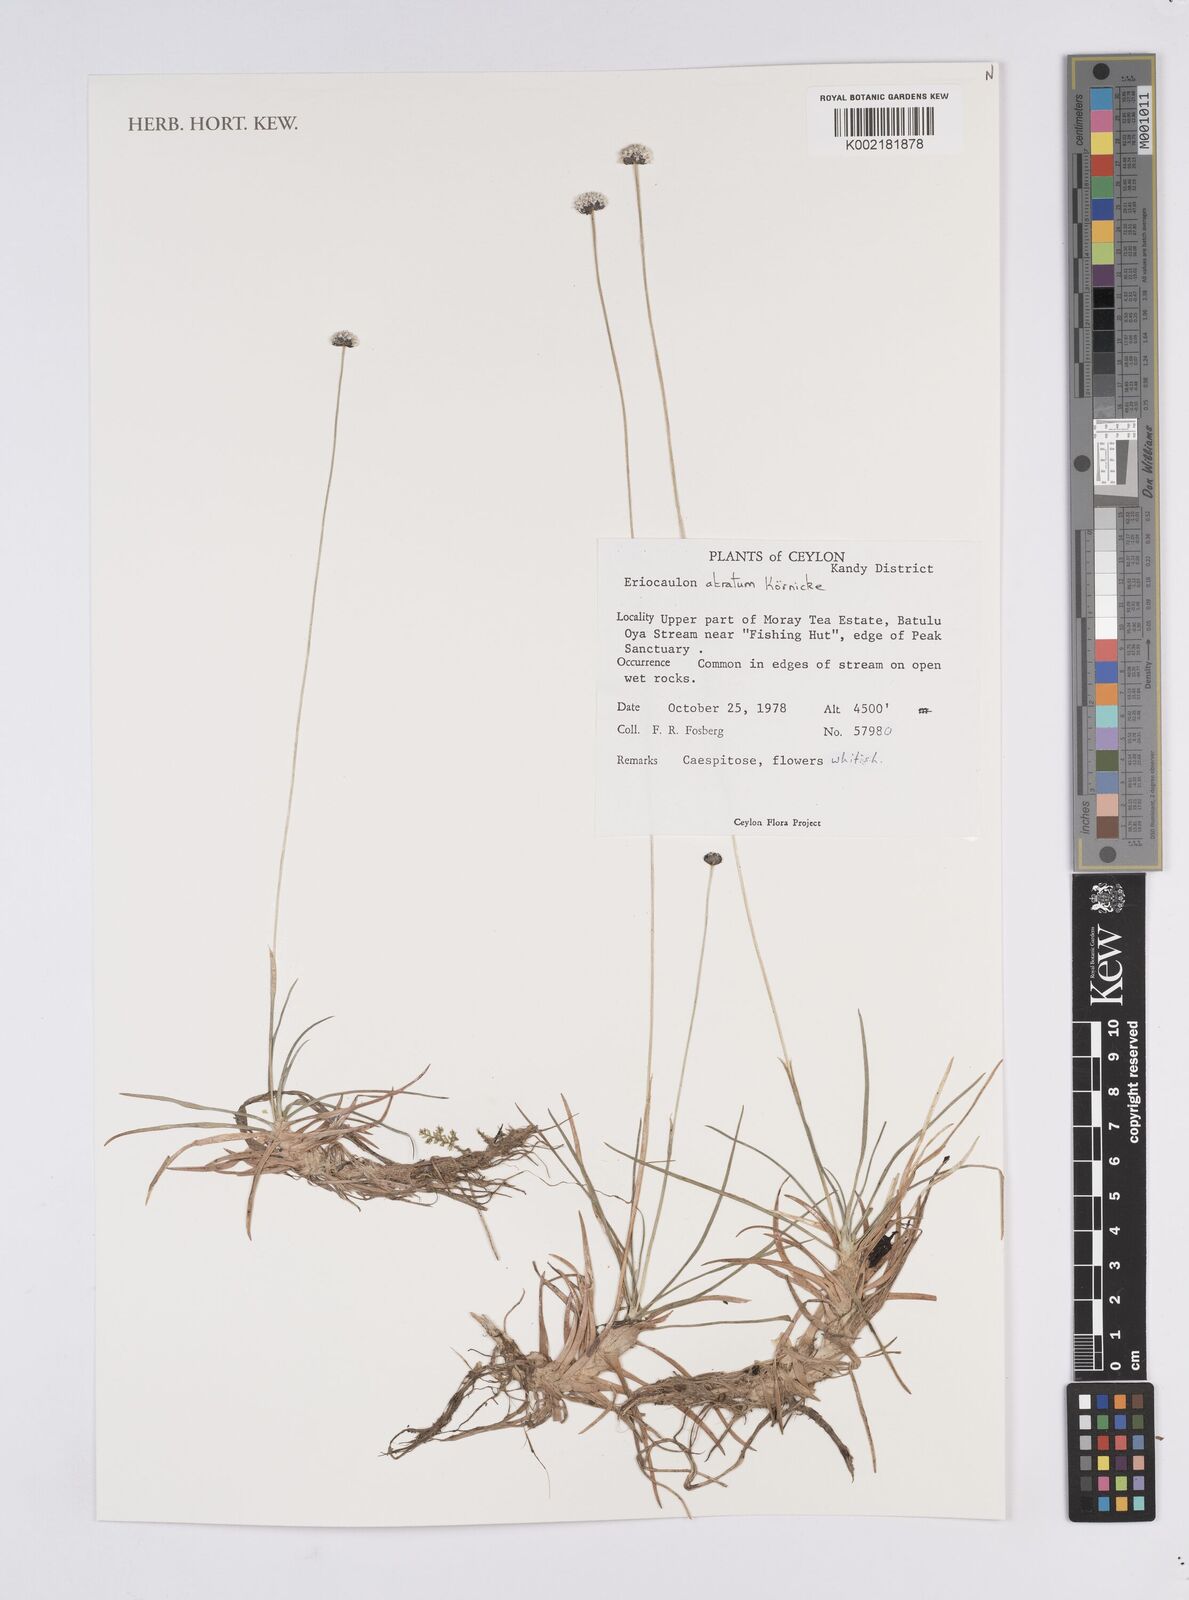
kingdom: Plantae
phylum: Tracheophyta
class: Liliopsida
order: Poales
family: Eriocaulaceae
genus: Eriocaulon
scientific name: Eriocaulon atratum
